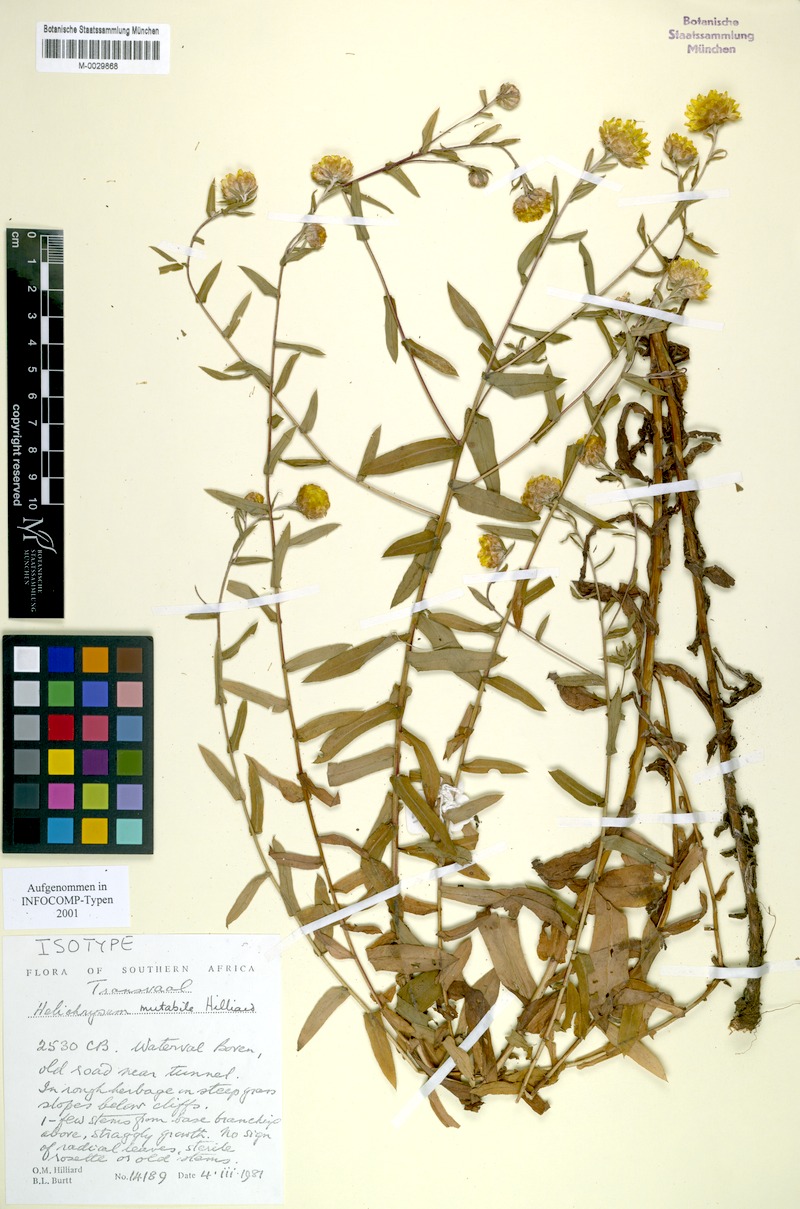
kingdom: Plantae
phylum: Tracheophyta
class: Magnoliopsida
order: Asterales
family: Asteraceae
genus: Helichrysum
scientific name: Helichrysum mutabile
